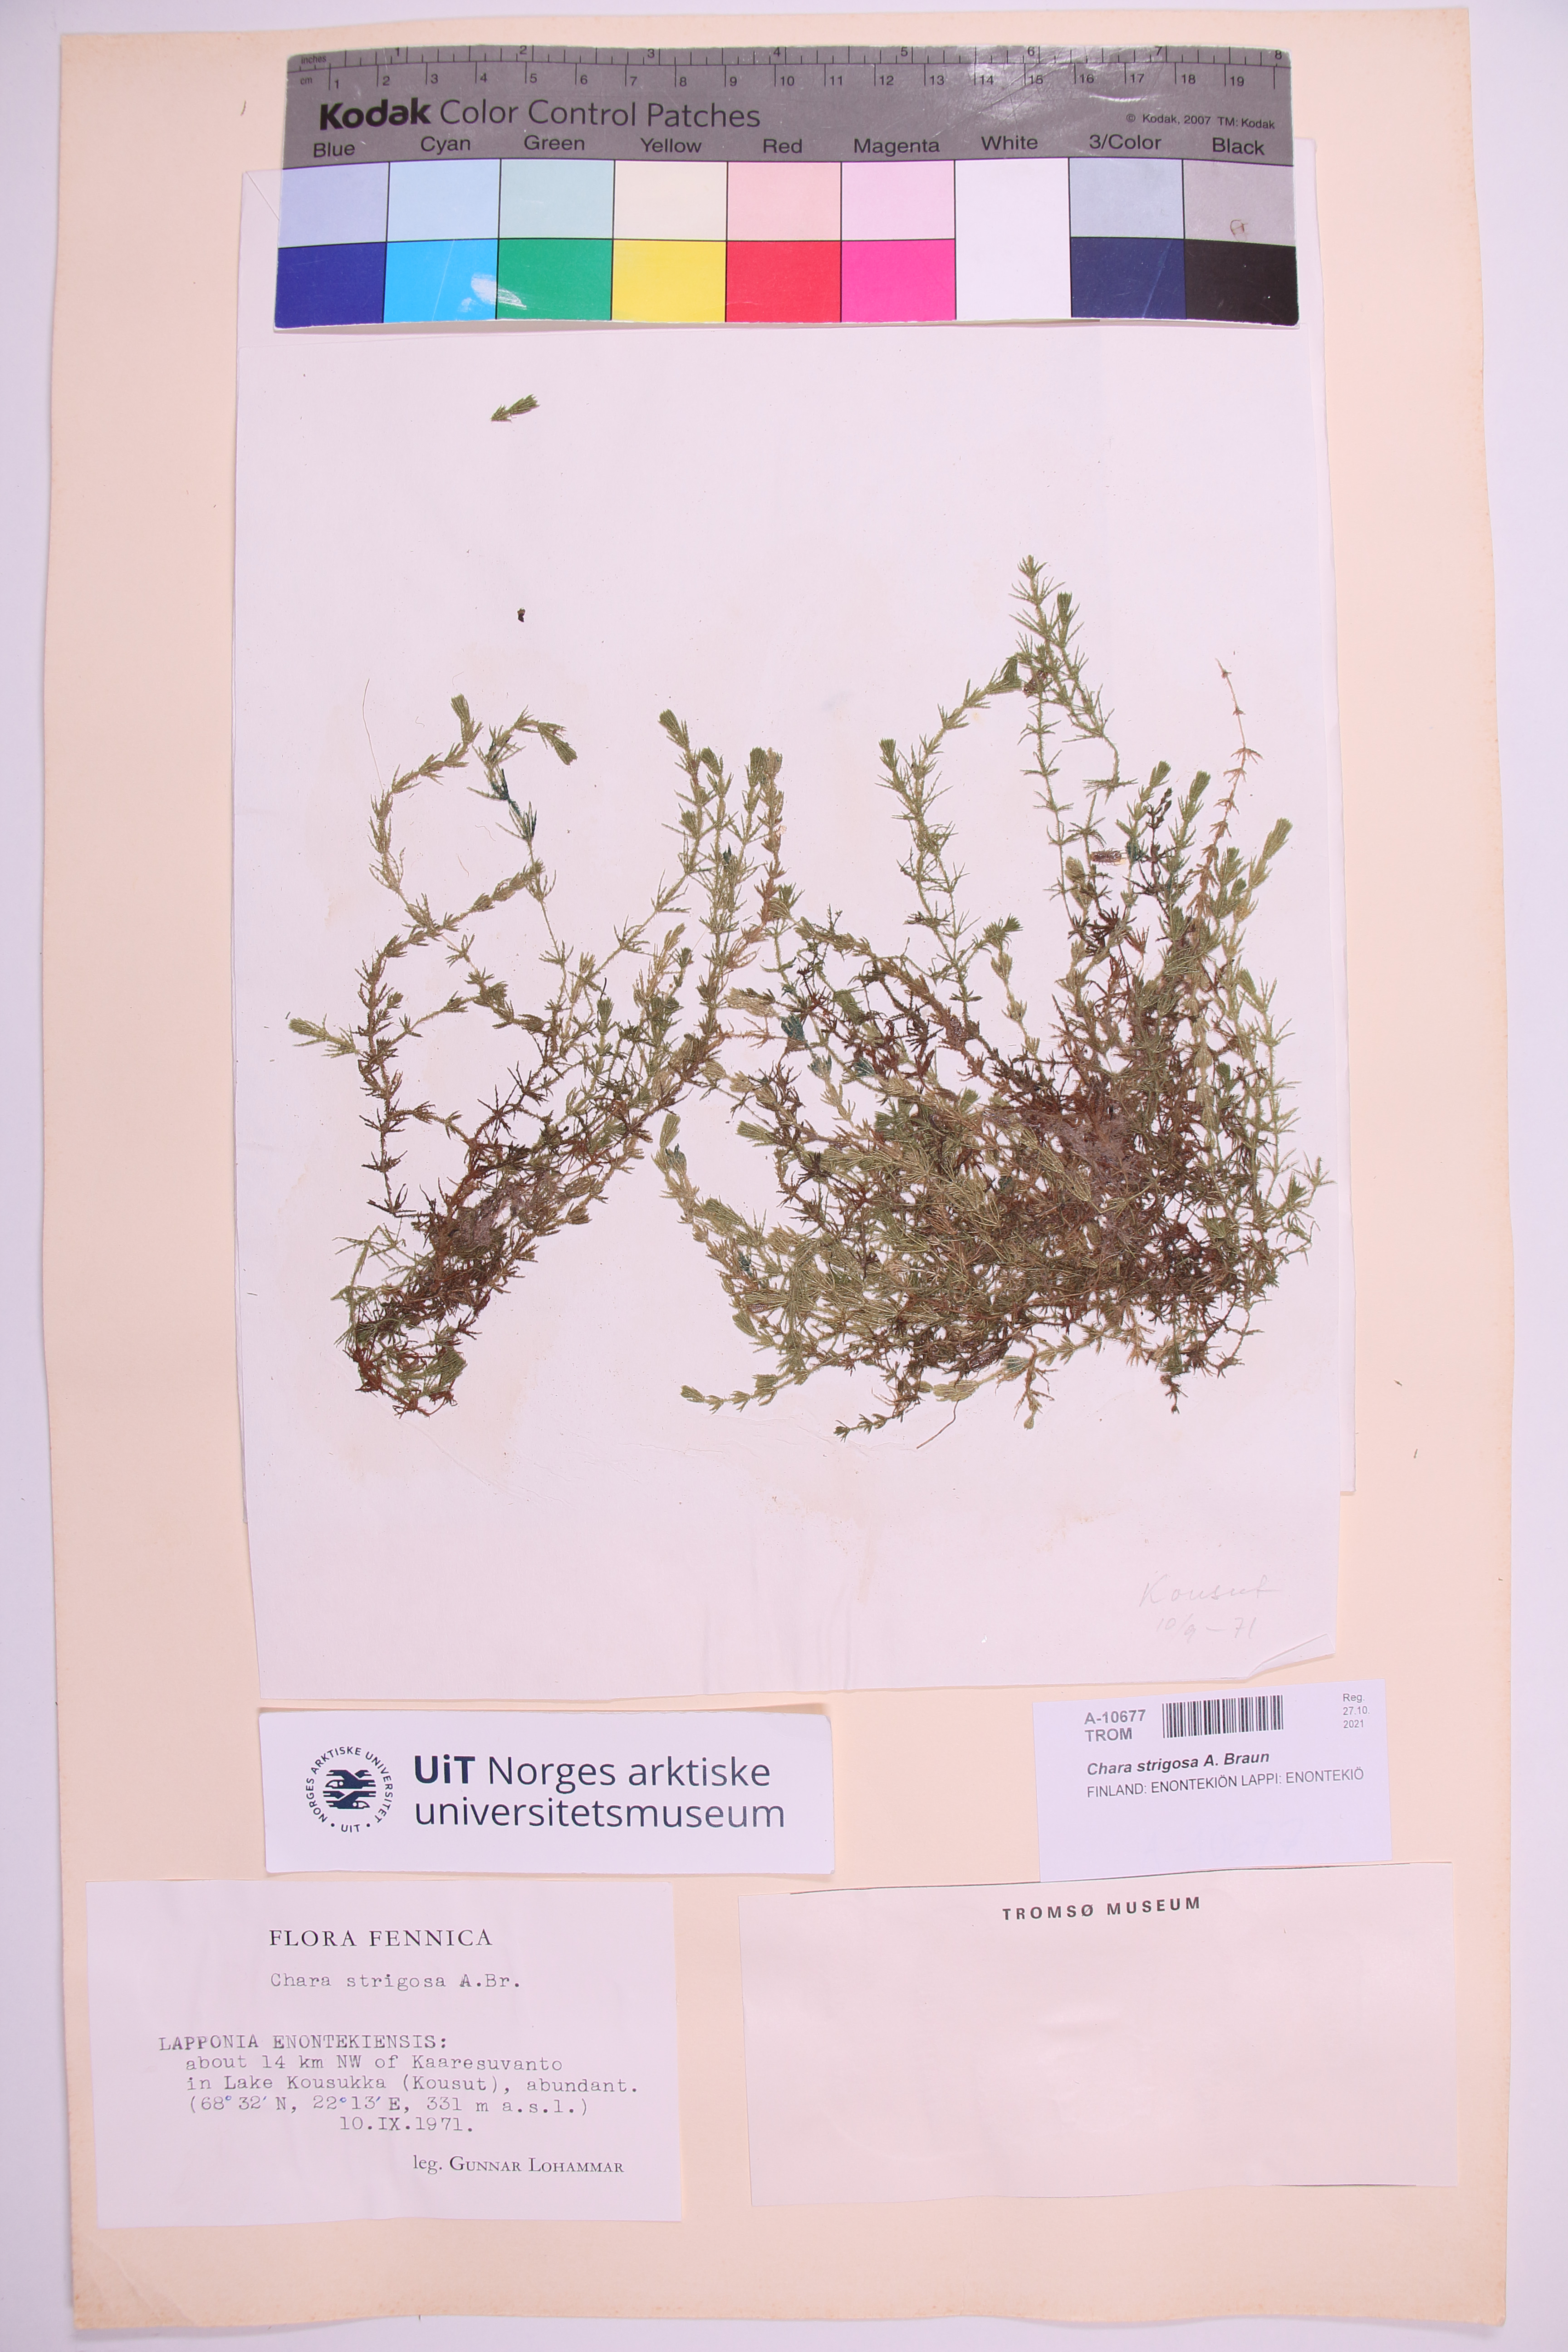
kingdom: Plantae
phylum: Charophyta
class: Charophyceae
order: Charales
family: Characeae
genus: Chara
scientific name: Chara strigosa
